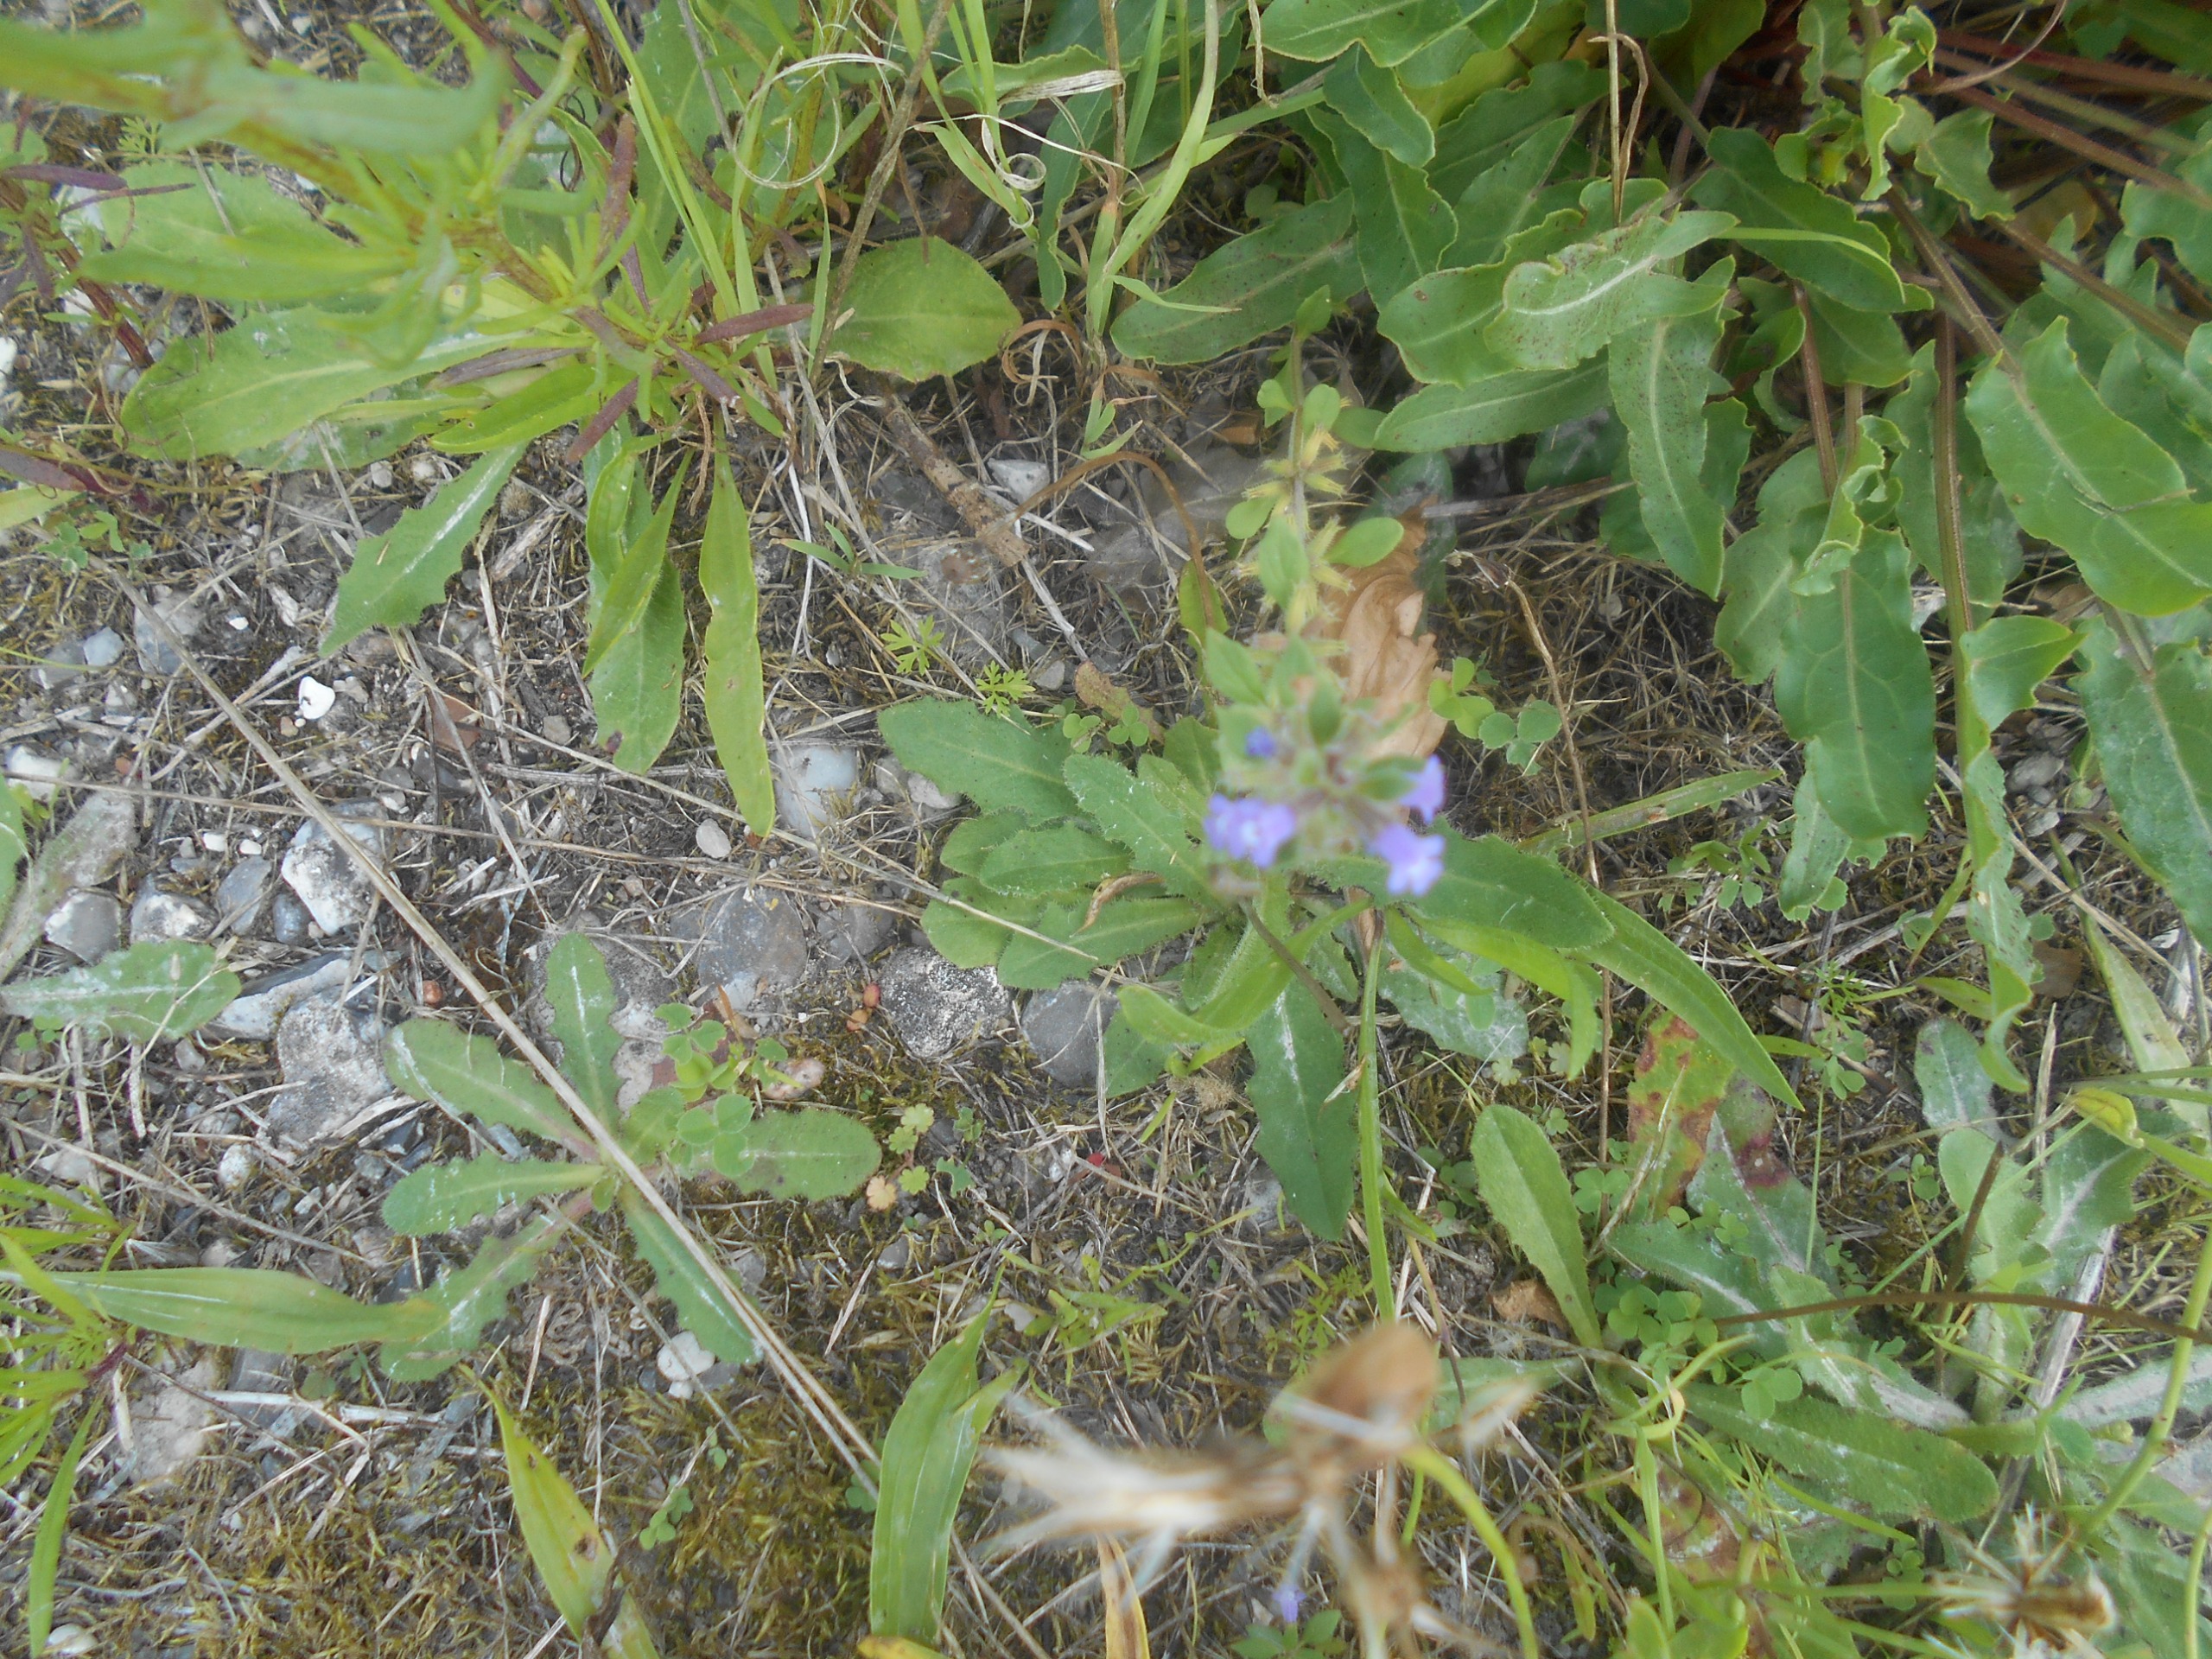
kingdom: Plantae
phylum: Tracheophyta
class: Magnoliopsida
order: Lamiales
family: Lamiaceae
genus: Clinopodium
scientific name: Clinopodium acinos
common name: Voldtimian
